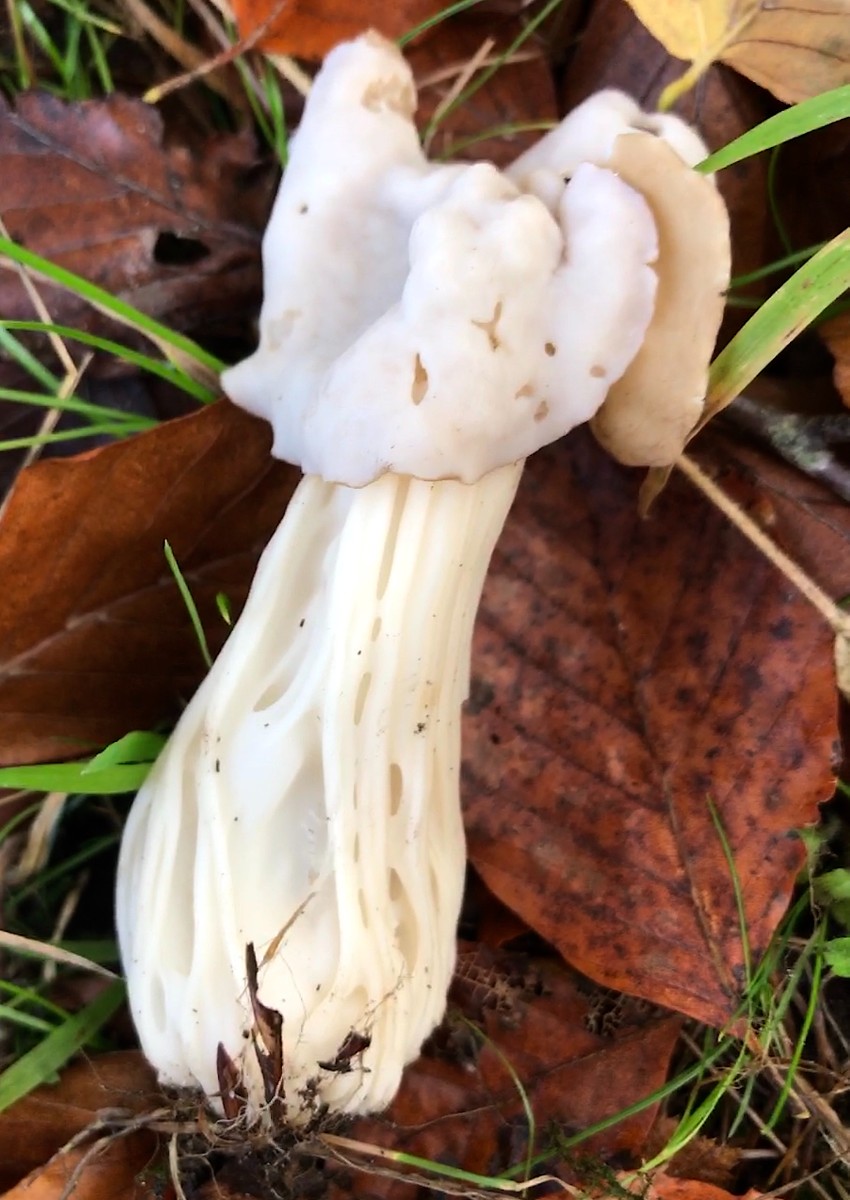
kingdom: Fungi
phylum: Ascomycota
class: Pezizomycetes
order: Pezizales
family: Helvellaceae
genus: Helvella
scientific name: Helvella crispa
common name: kruset foldhat
